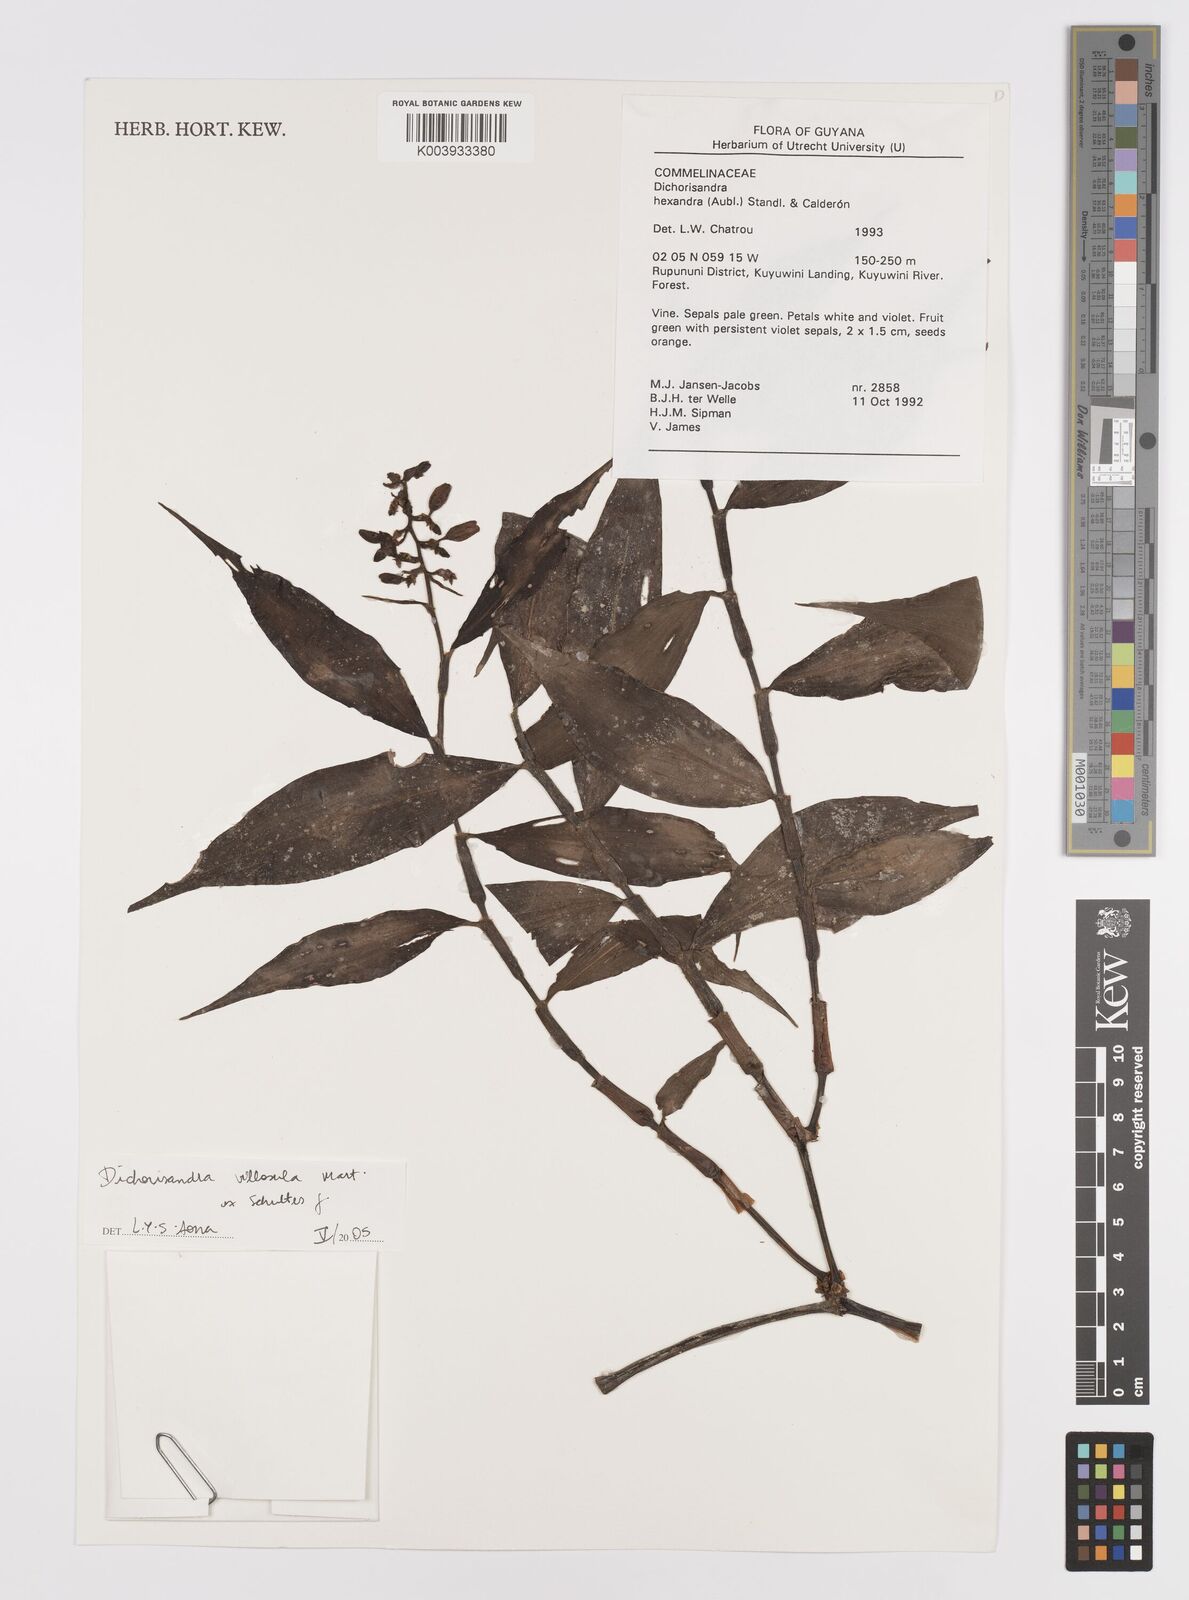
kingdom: Plantae
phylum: Tracheophyta
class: Liliopsida
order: Commelinales
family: Commelinaceae
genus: Dichorisandra
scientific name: Dichorisandra villosula
